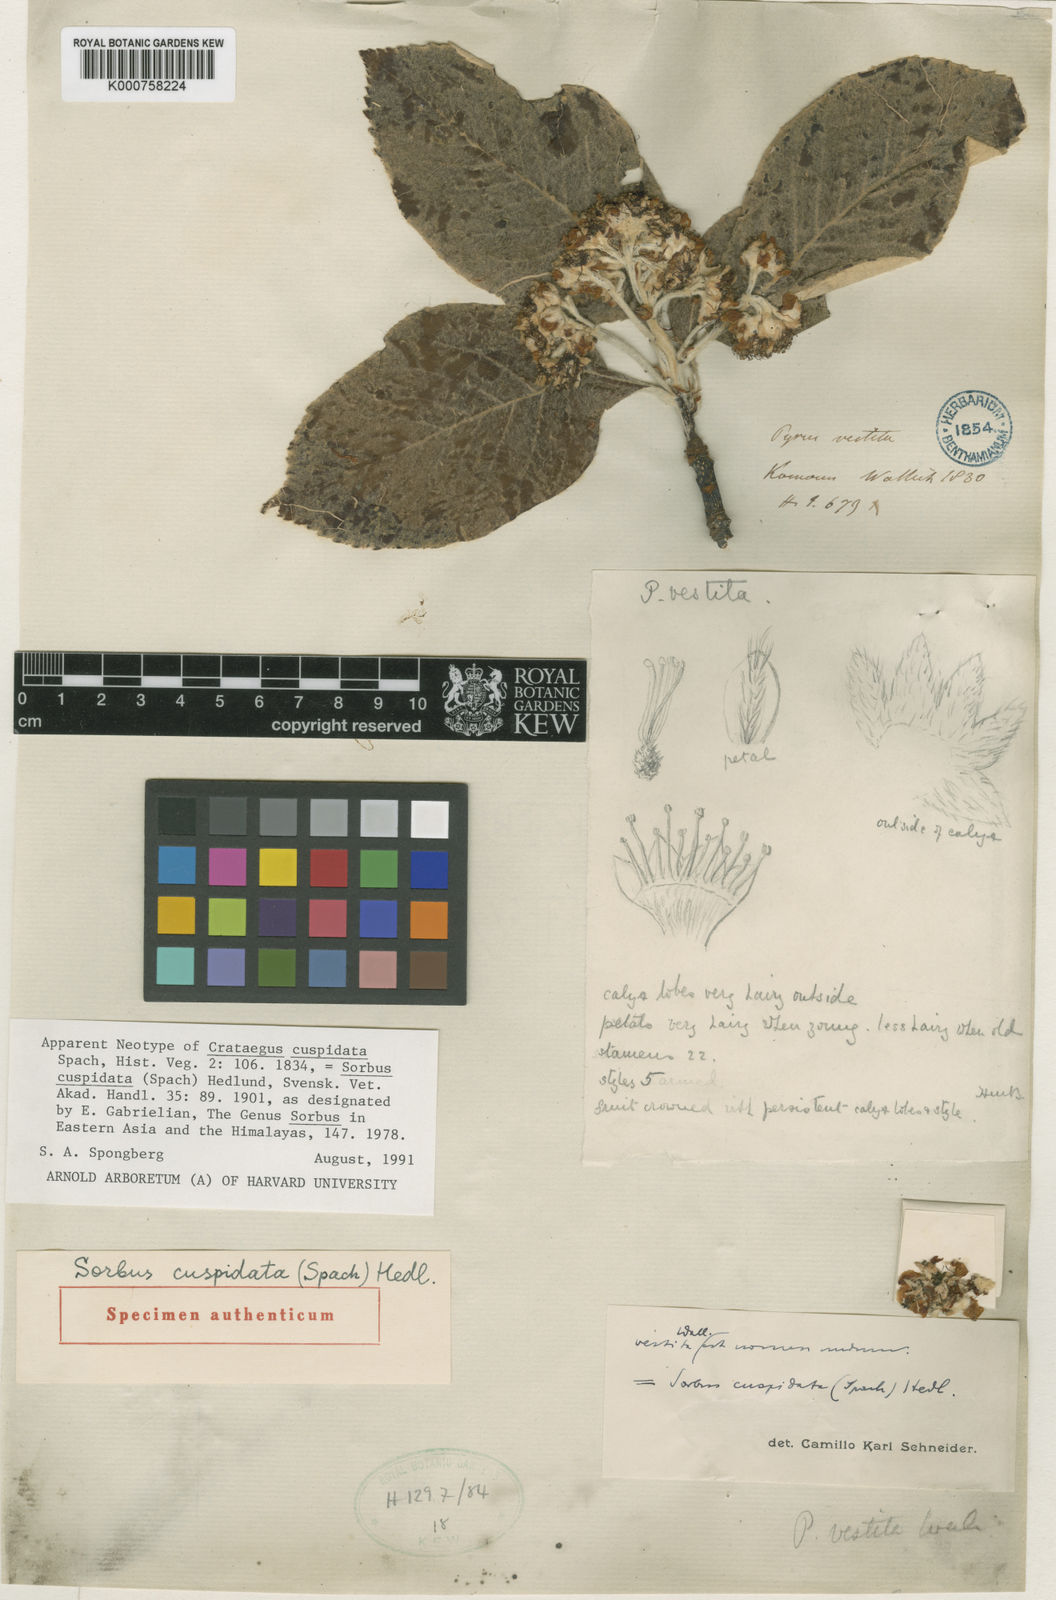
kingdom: Plantae
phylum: Tracheophyta
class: Magnoliopsida
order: Rosales
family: Rosaceae
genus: Sorbus
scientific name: Sorbus
